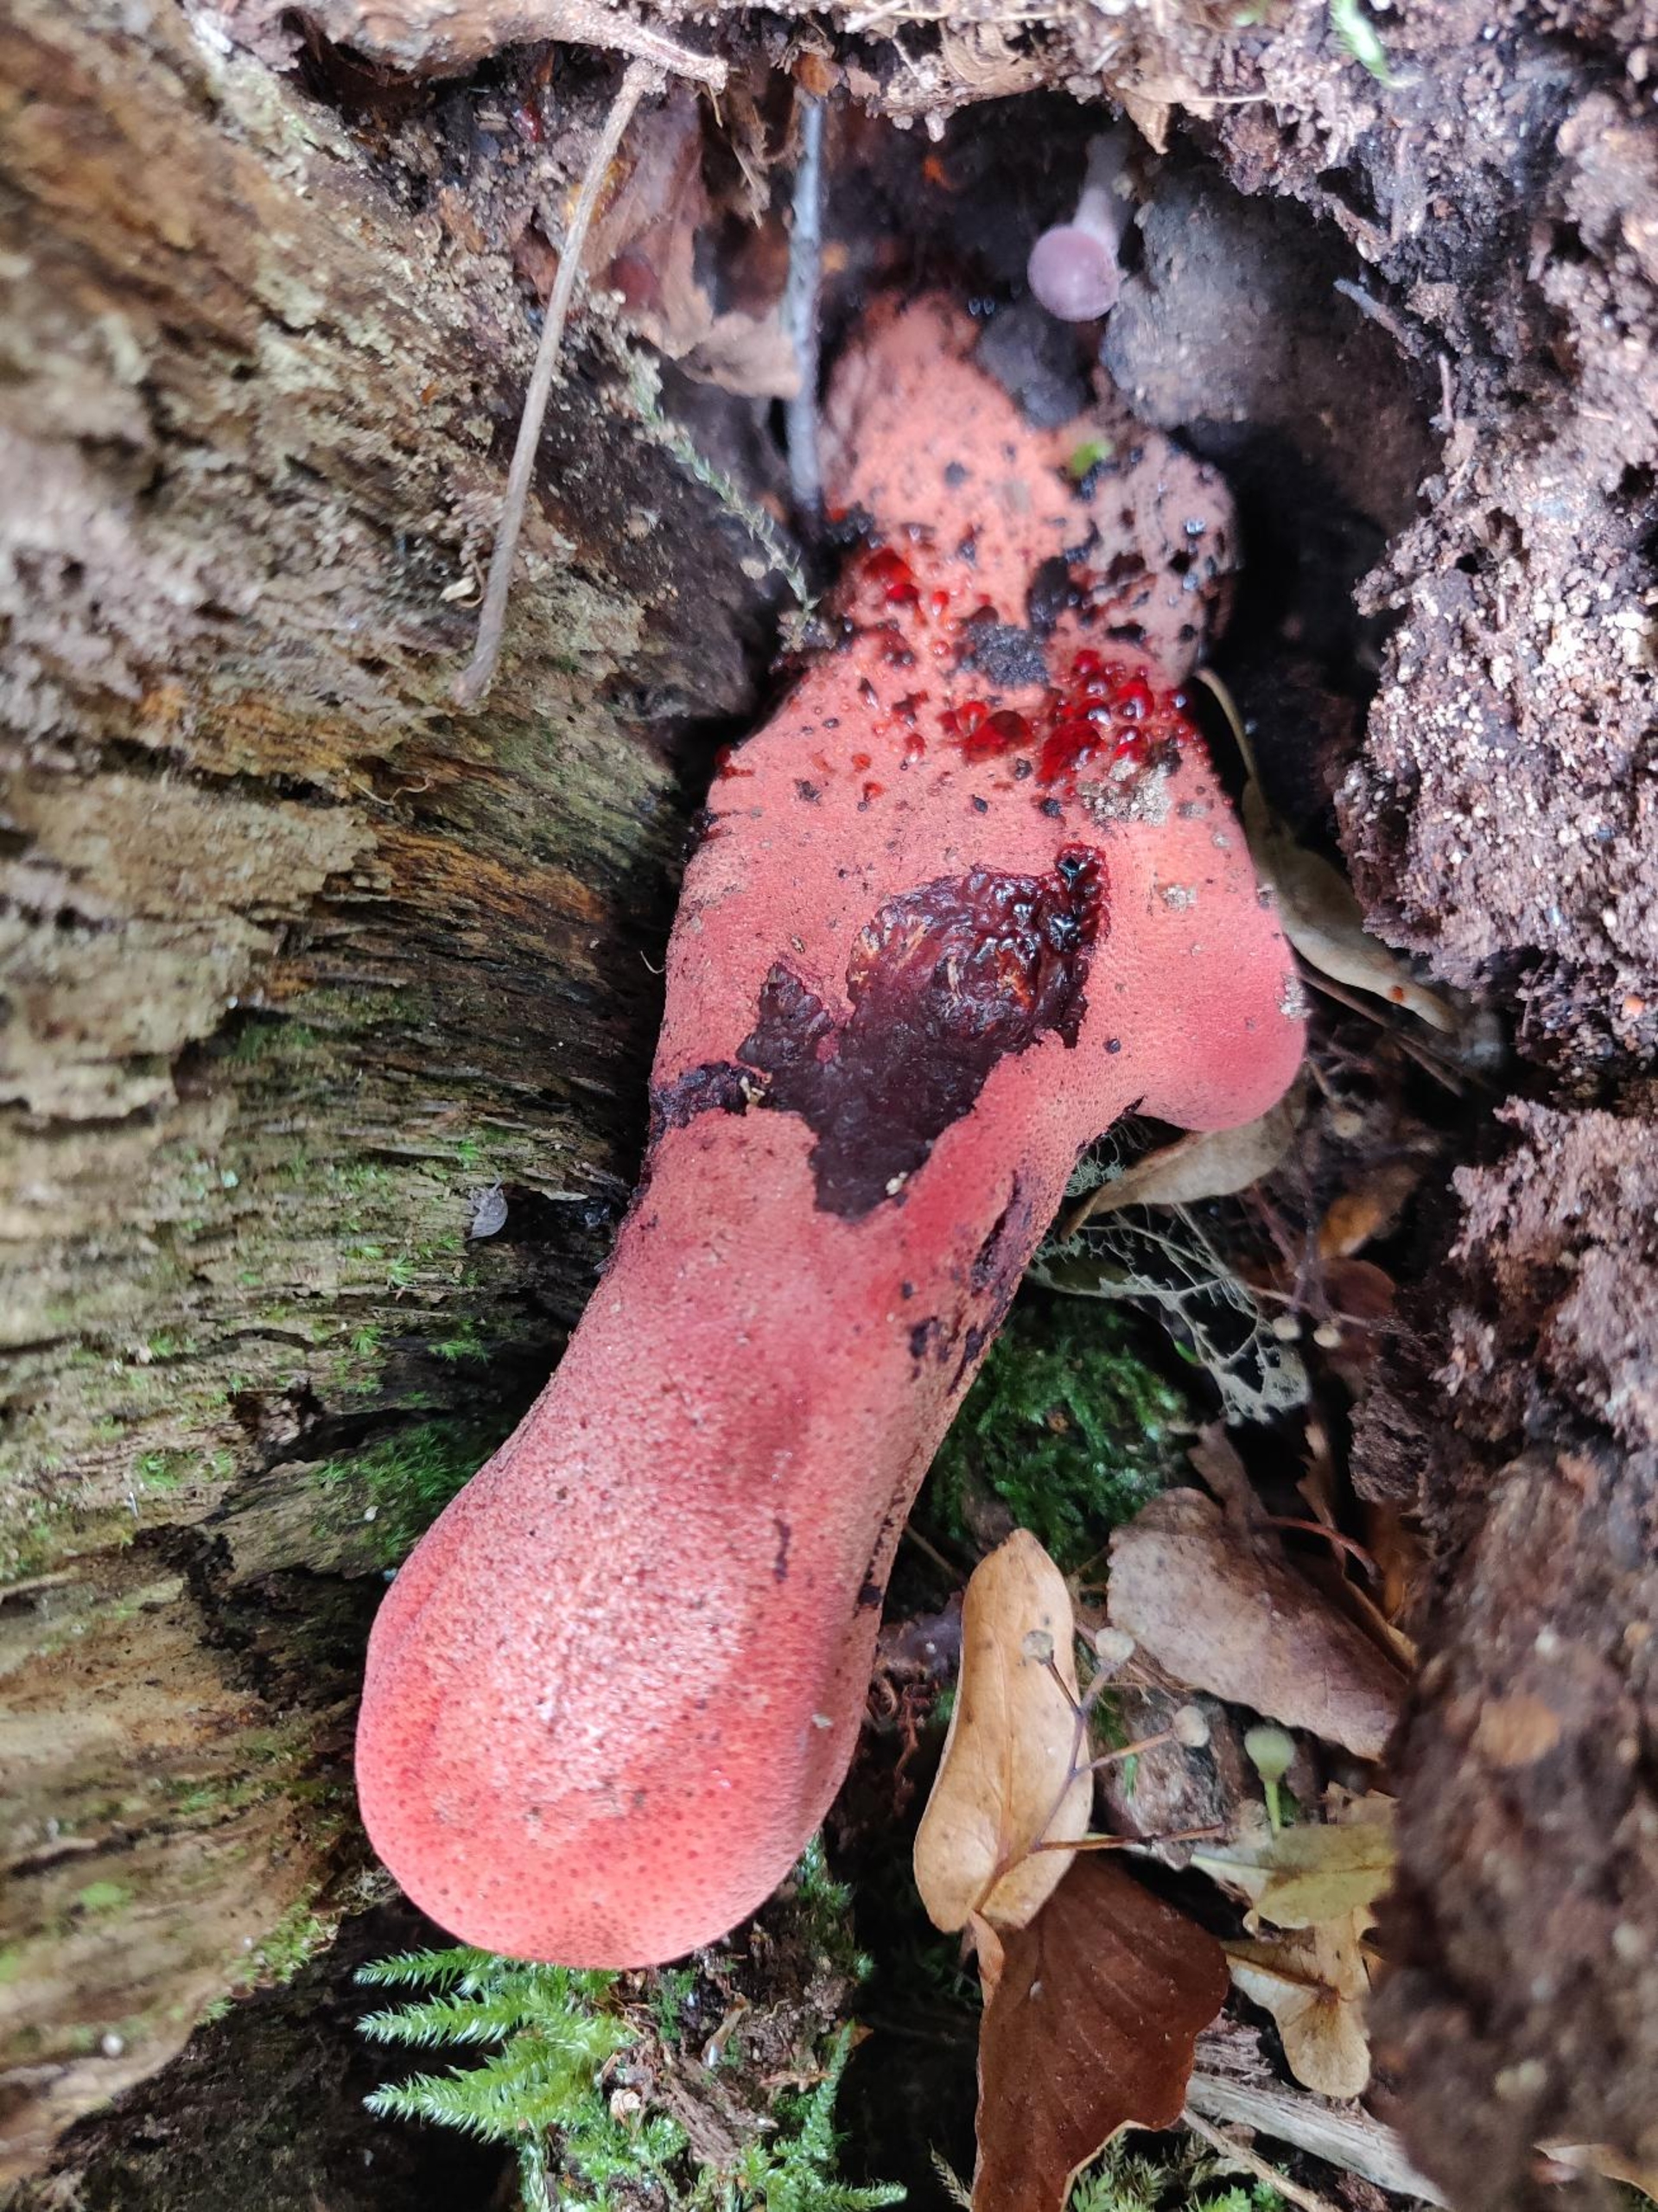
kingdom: Fungi
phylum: Basidiomycota
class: Agaricomycetes
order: Agaricales
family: Fistulinaceae
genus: Fistulina
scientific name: Fistulina hepatica
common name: Oksetunge
